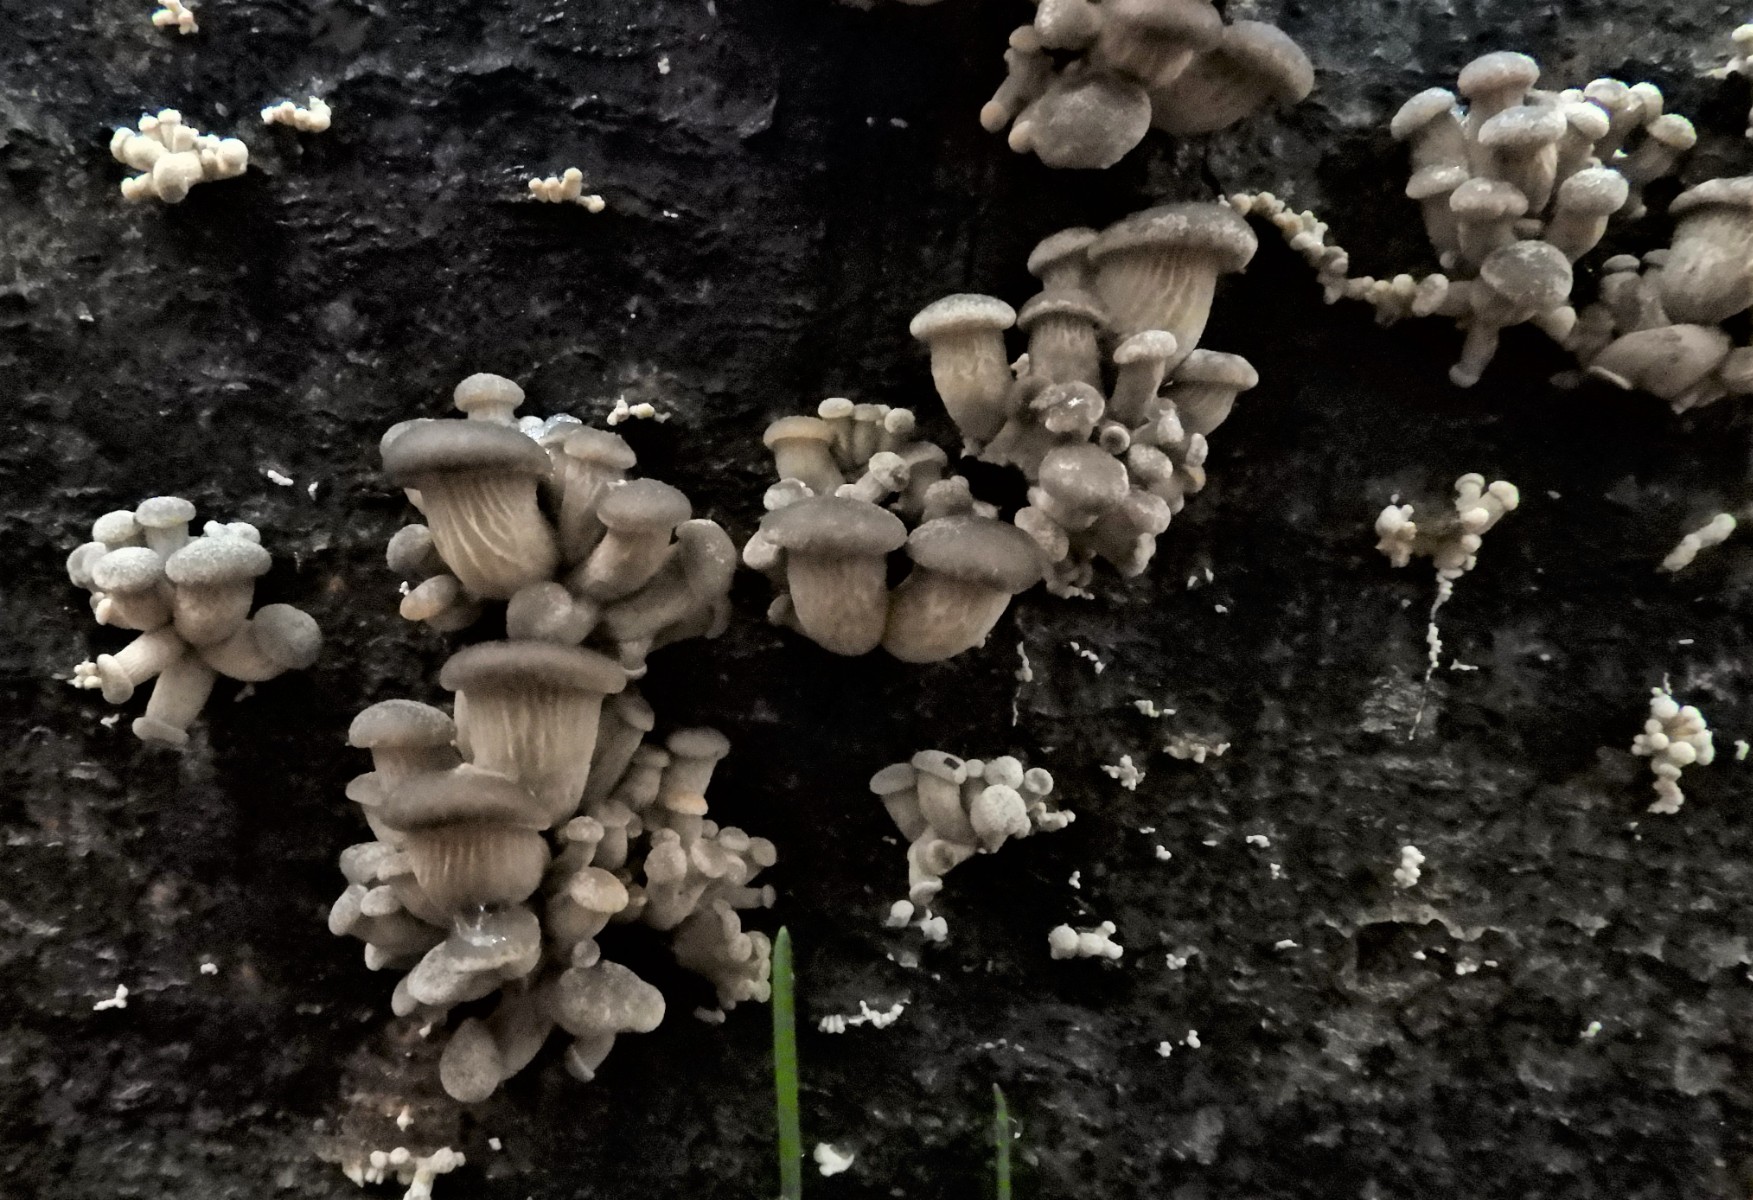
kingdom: Fungi
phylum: Basidiomycota
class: Agaricomycetes
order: Agaricales
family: Pleurotaceae
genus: Pleurotus
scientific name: Pleurotus ostreatus
